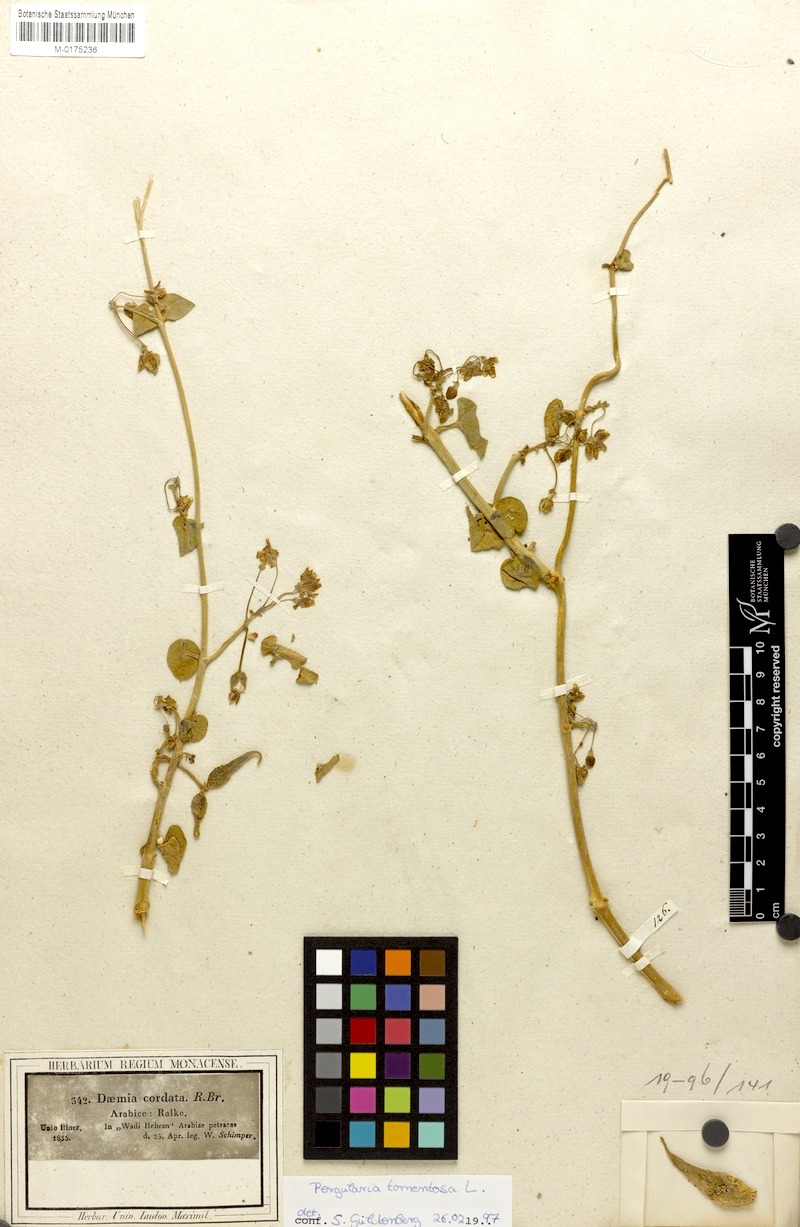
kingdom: Plantae
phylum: Tracheophyta
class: Magnoliopsida
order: Gentianales
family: Apocynaceae
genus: Pergularia
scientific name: Pergularia tomentosa
